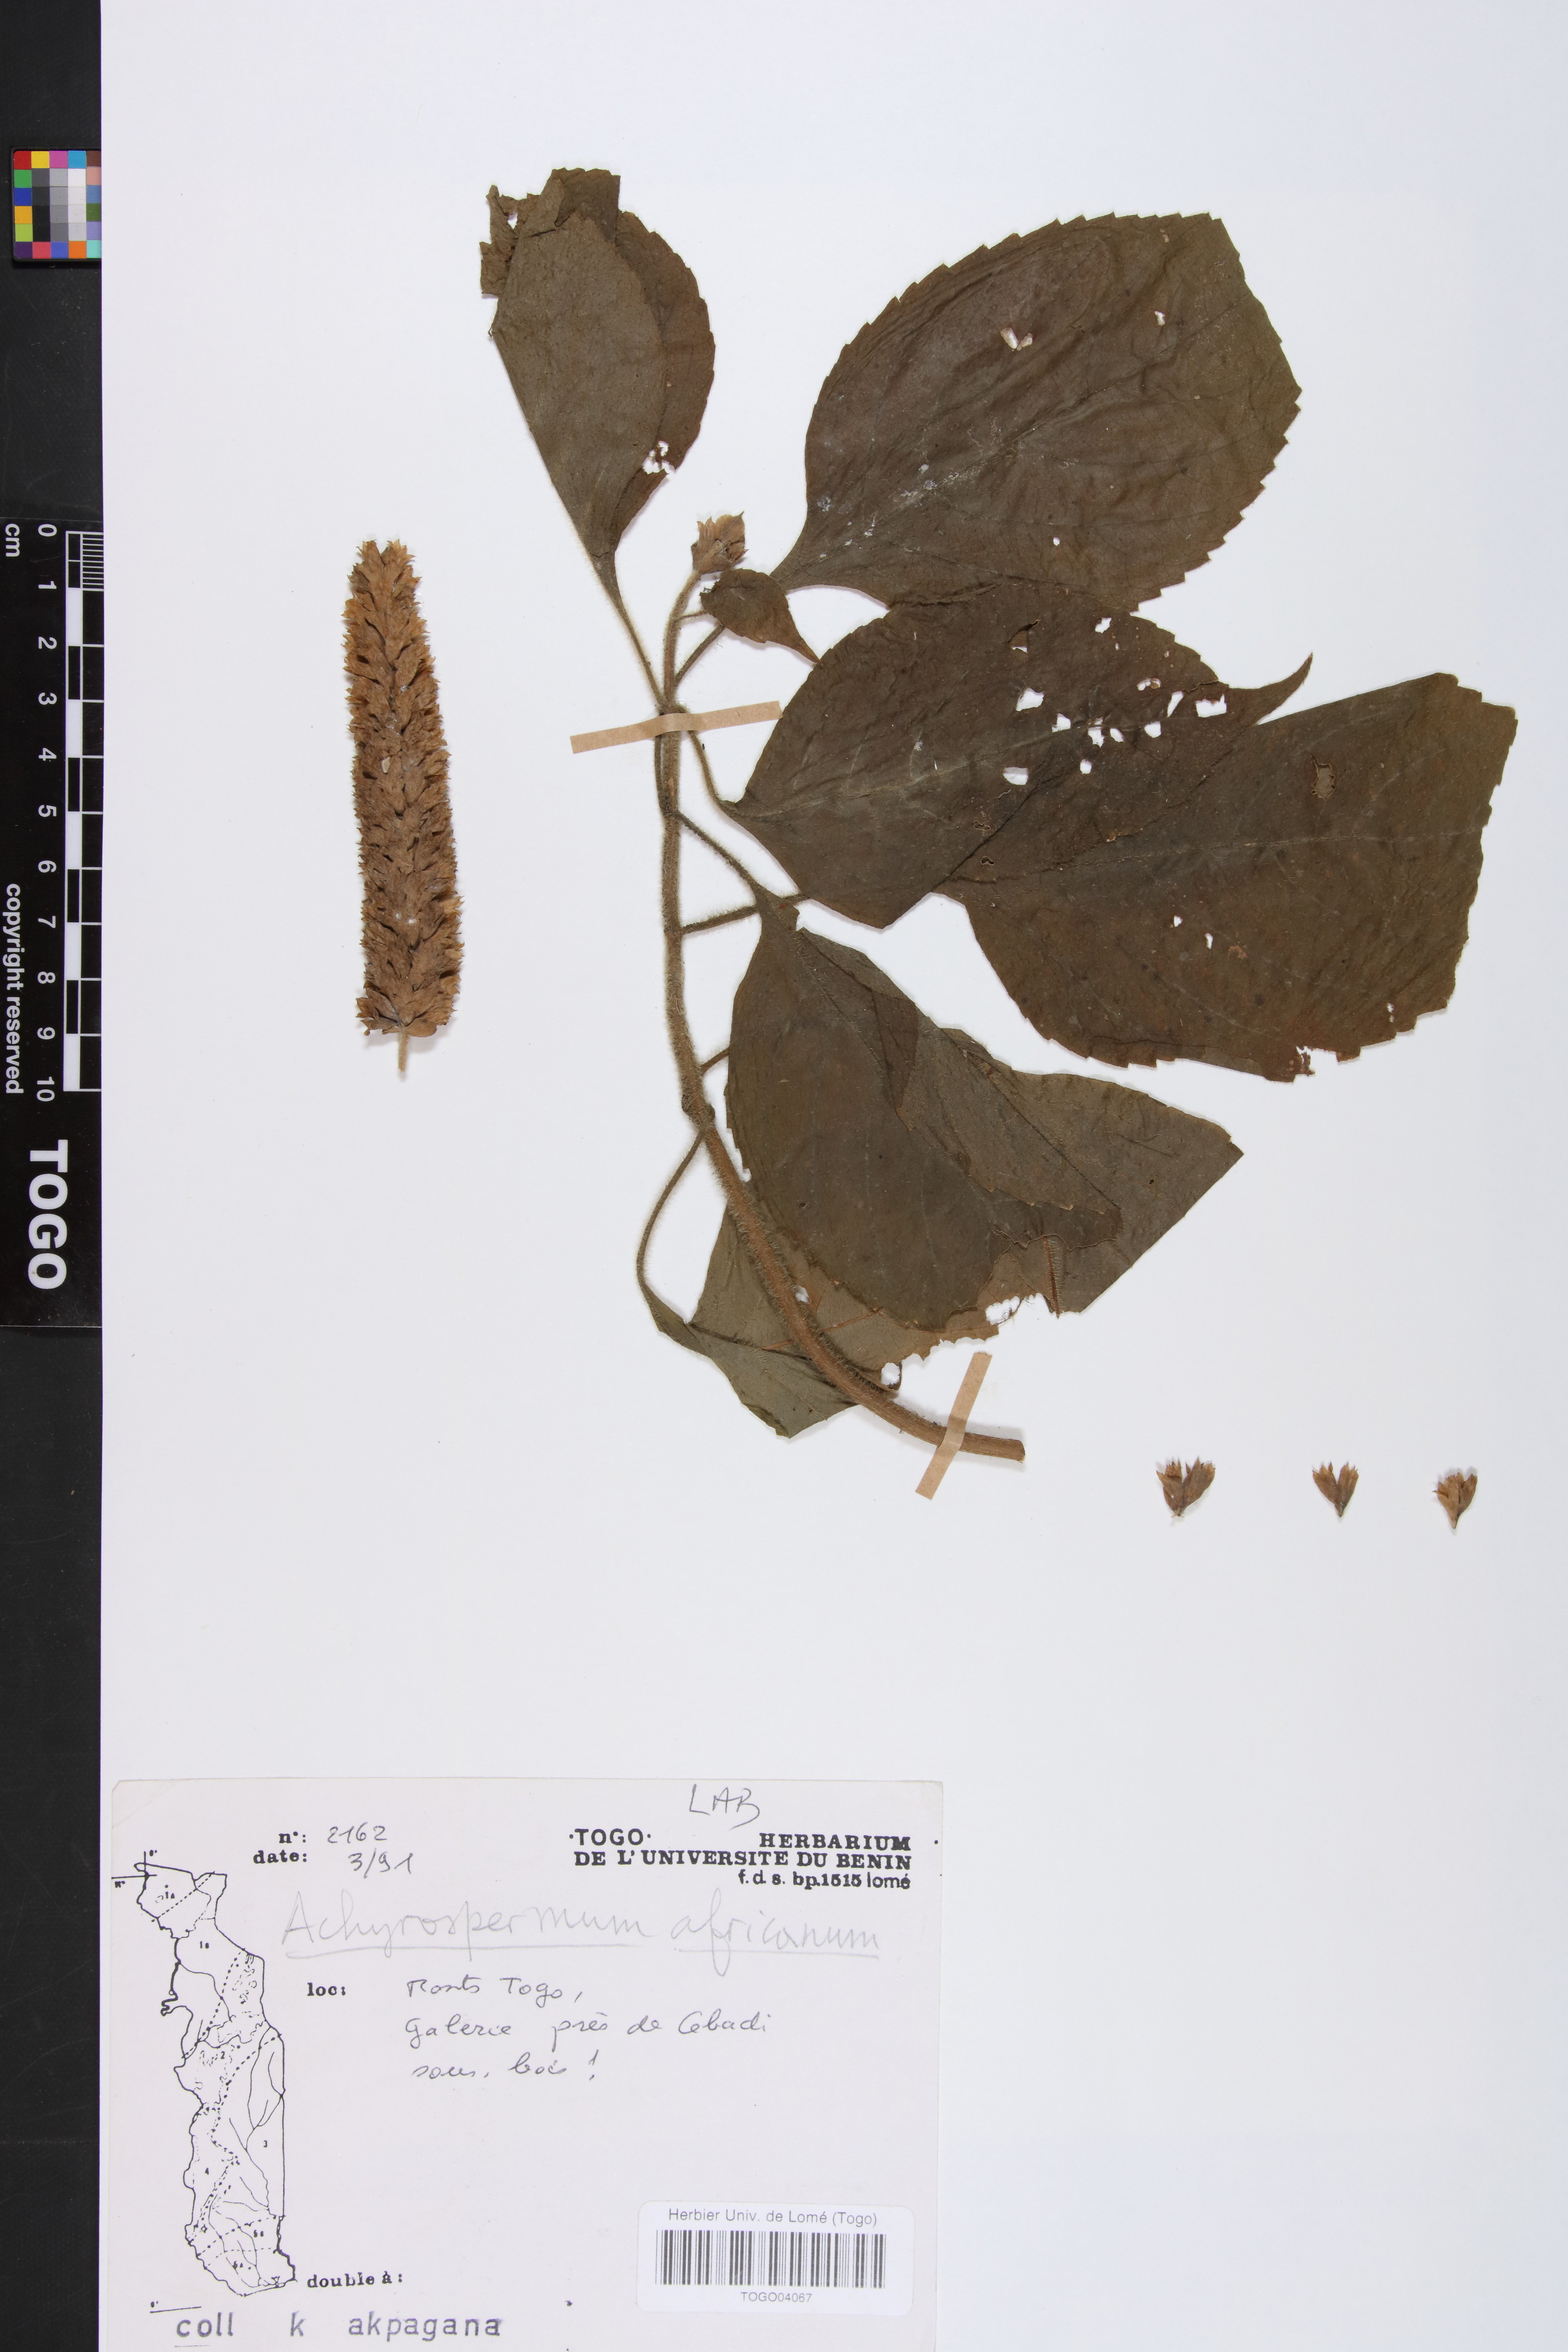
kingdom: Plantae
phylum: Tracheophyta
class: Magnoliopsida
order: Lamiales
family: Lamiaceae
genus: Achyrospermum
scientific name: Achyrospermum africanum
